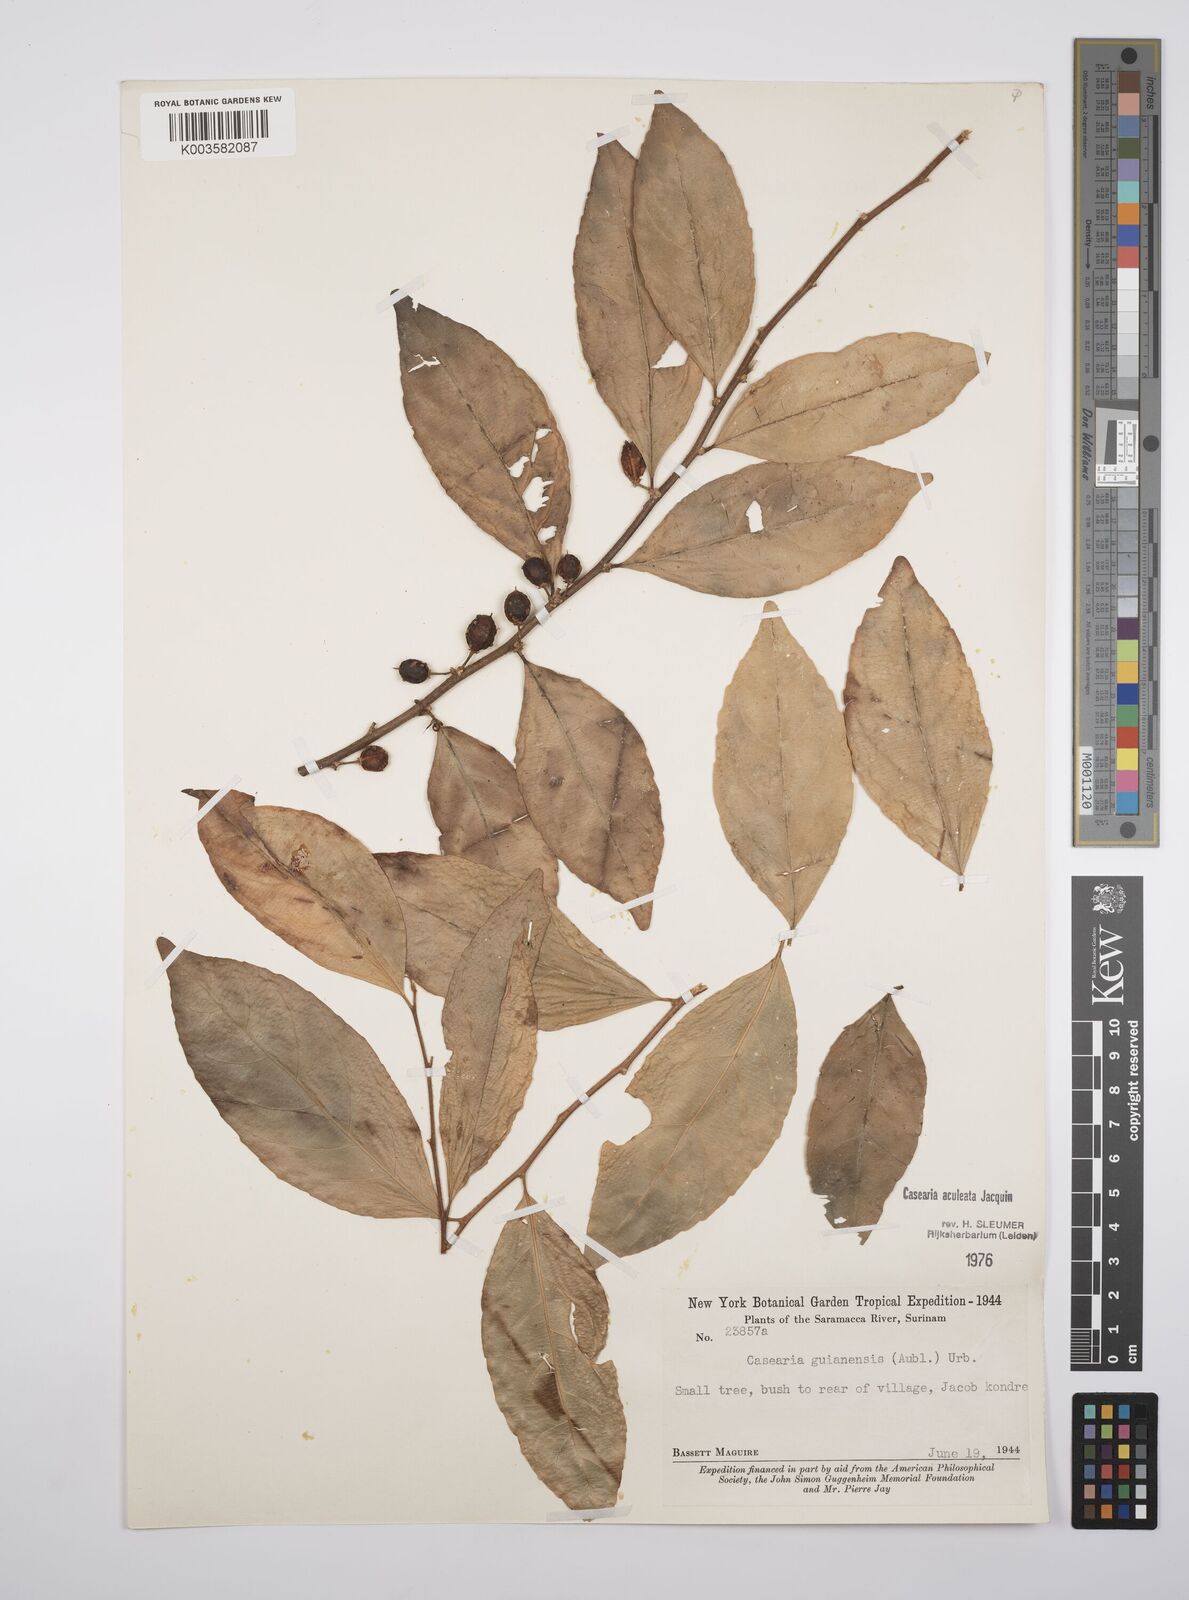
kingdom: Plantae
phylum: Tracheophyta
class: Magnoliopsida
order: Malpighiales
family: Salicaceae
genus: Casearia
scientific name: Casearia aculeata
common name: Cockspur
